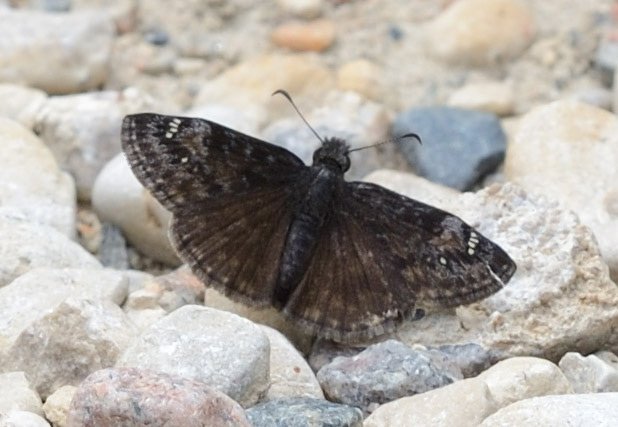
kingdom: Animalia
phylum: Arthropoda
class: Insecta
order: Lepidoptera
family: Hesperiidae
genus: Gesta
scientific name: Gesta
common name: Columbine Duskywing
